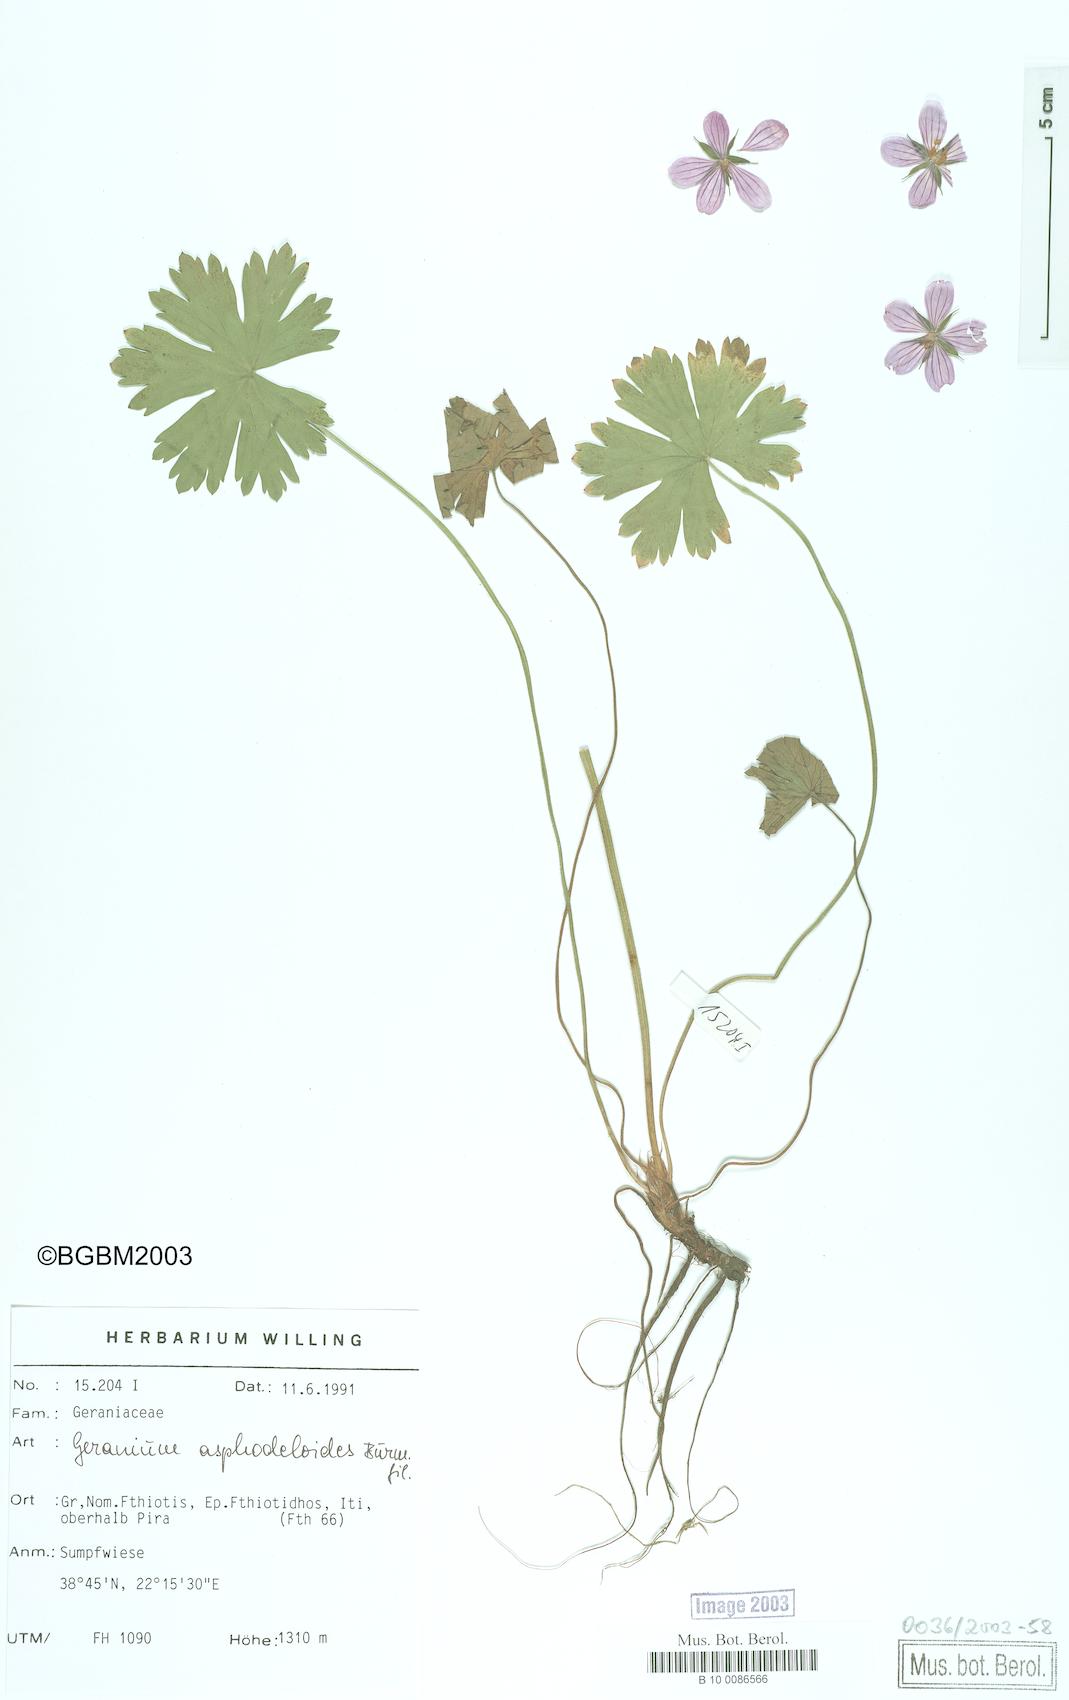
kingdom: Plantae
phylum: Tracheophyta
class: Magnoliopsida
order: Geraniales
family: Geraniaceae
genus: Geranium
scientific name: Geranium asphodeloides
